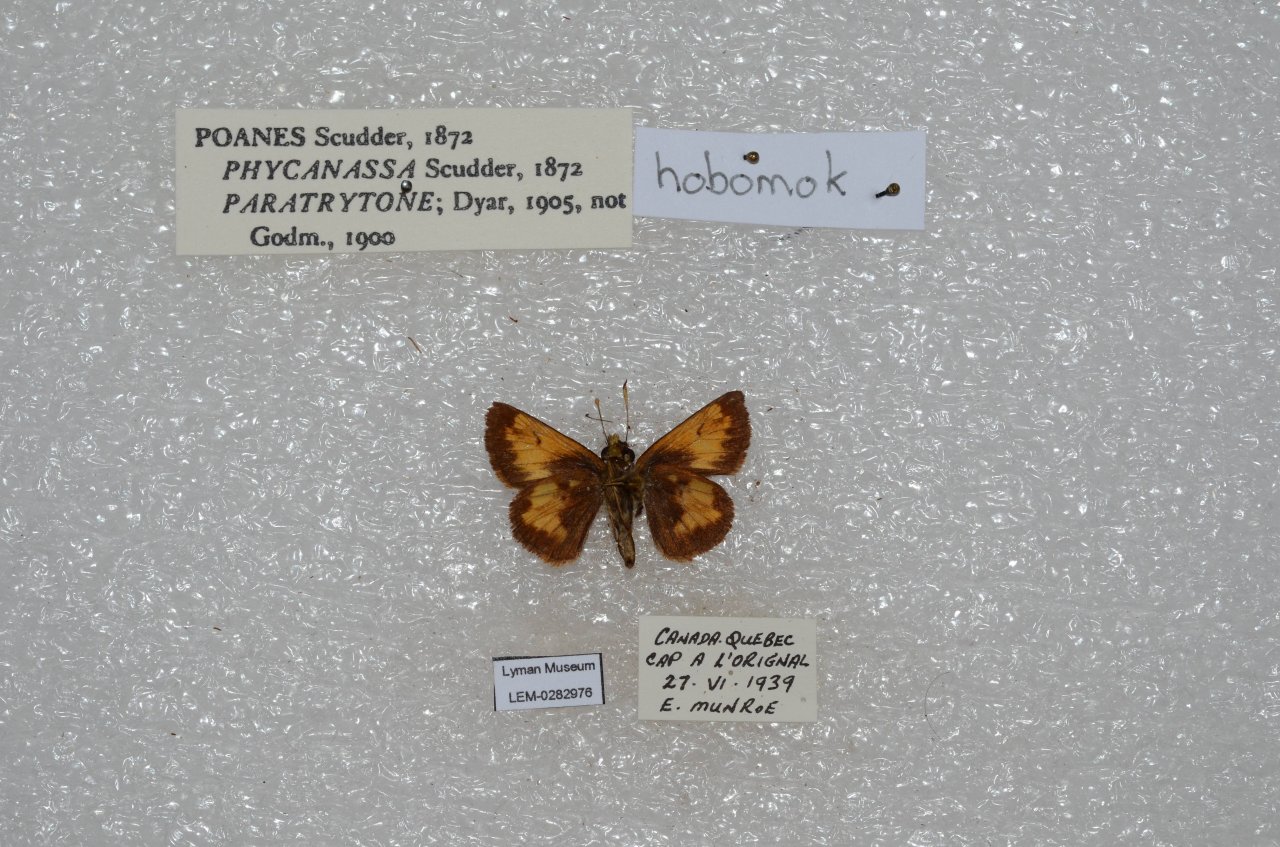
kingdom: Animalia
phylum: Arthropoda
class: Insecta
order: Lepidoptera
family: Hesperiidae
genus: Lon
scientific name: Lon hobomok
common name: Hobomok Skipper
